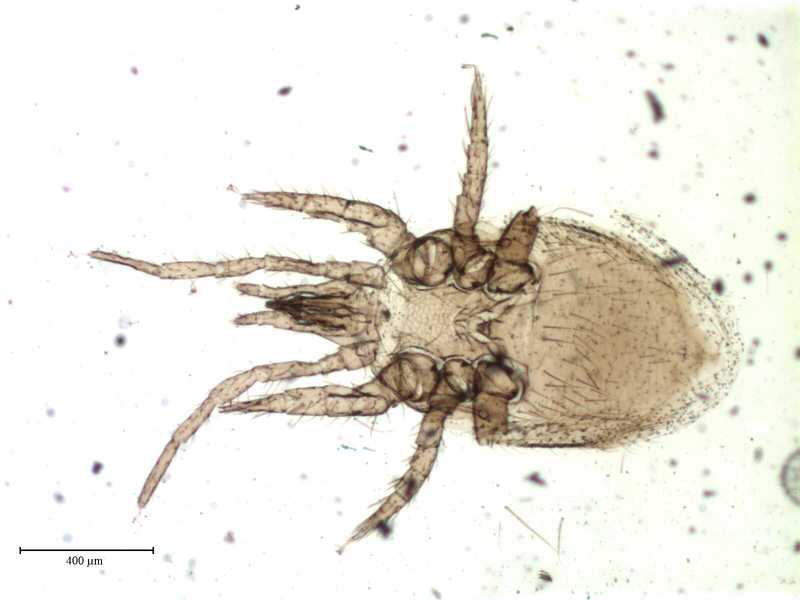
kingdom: Animalia
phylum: Arthropoda
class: Arachnida
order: Mesostigmata
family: Parasitidae
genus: Parasitellus
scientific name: Parasitellus ignotus
